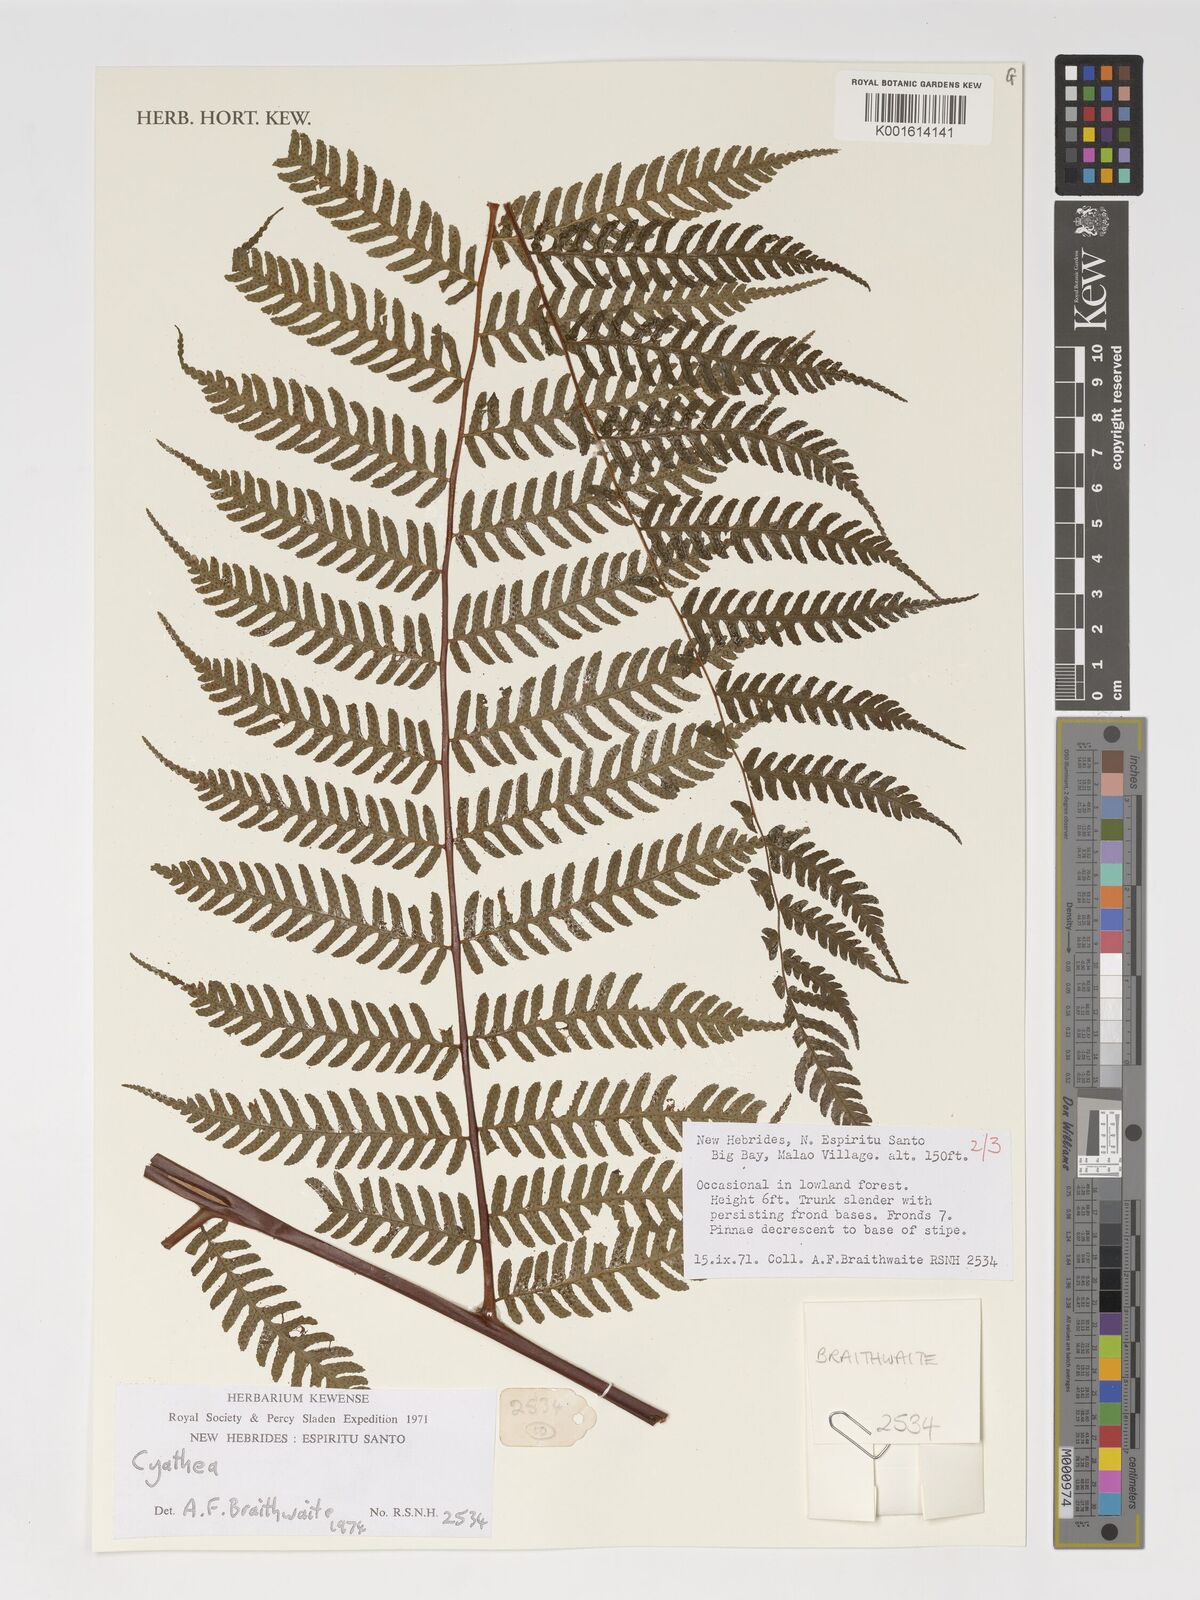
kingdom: Plantae
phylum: Tracheophyta
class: Polypodiopsida
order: Cyatheales
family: Cyatheaceae
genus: Cyathea
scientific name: Cyathea
